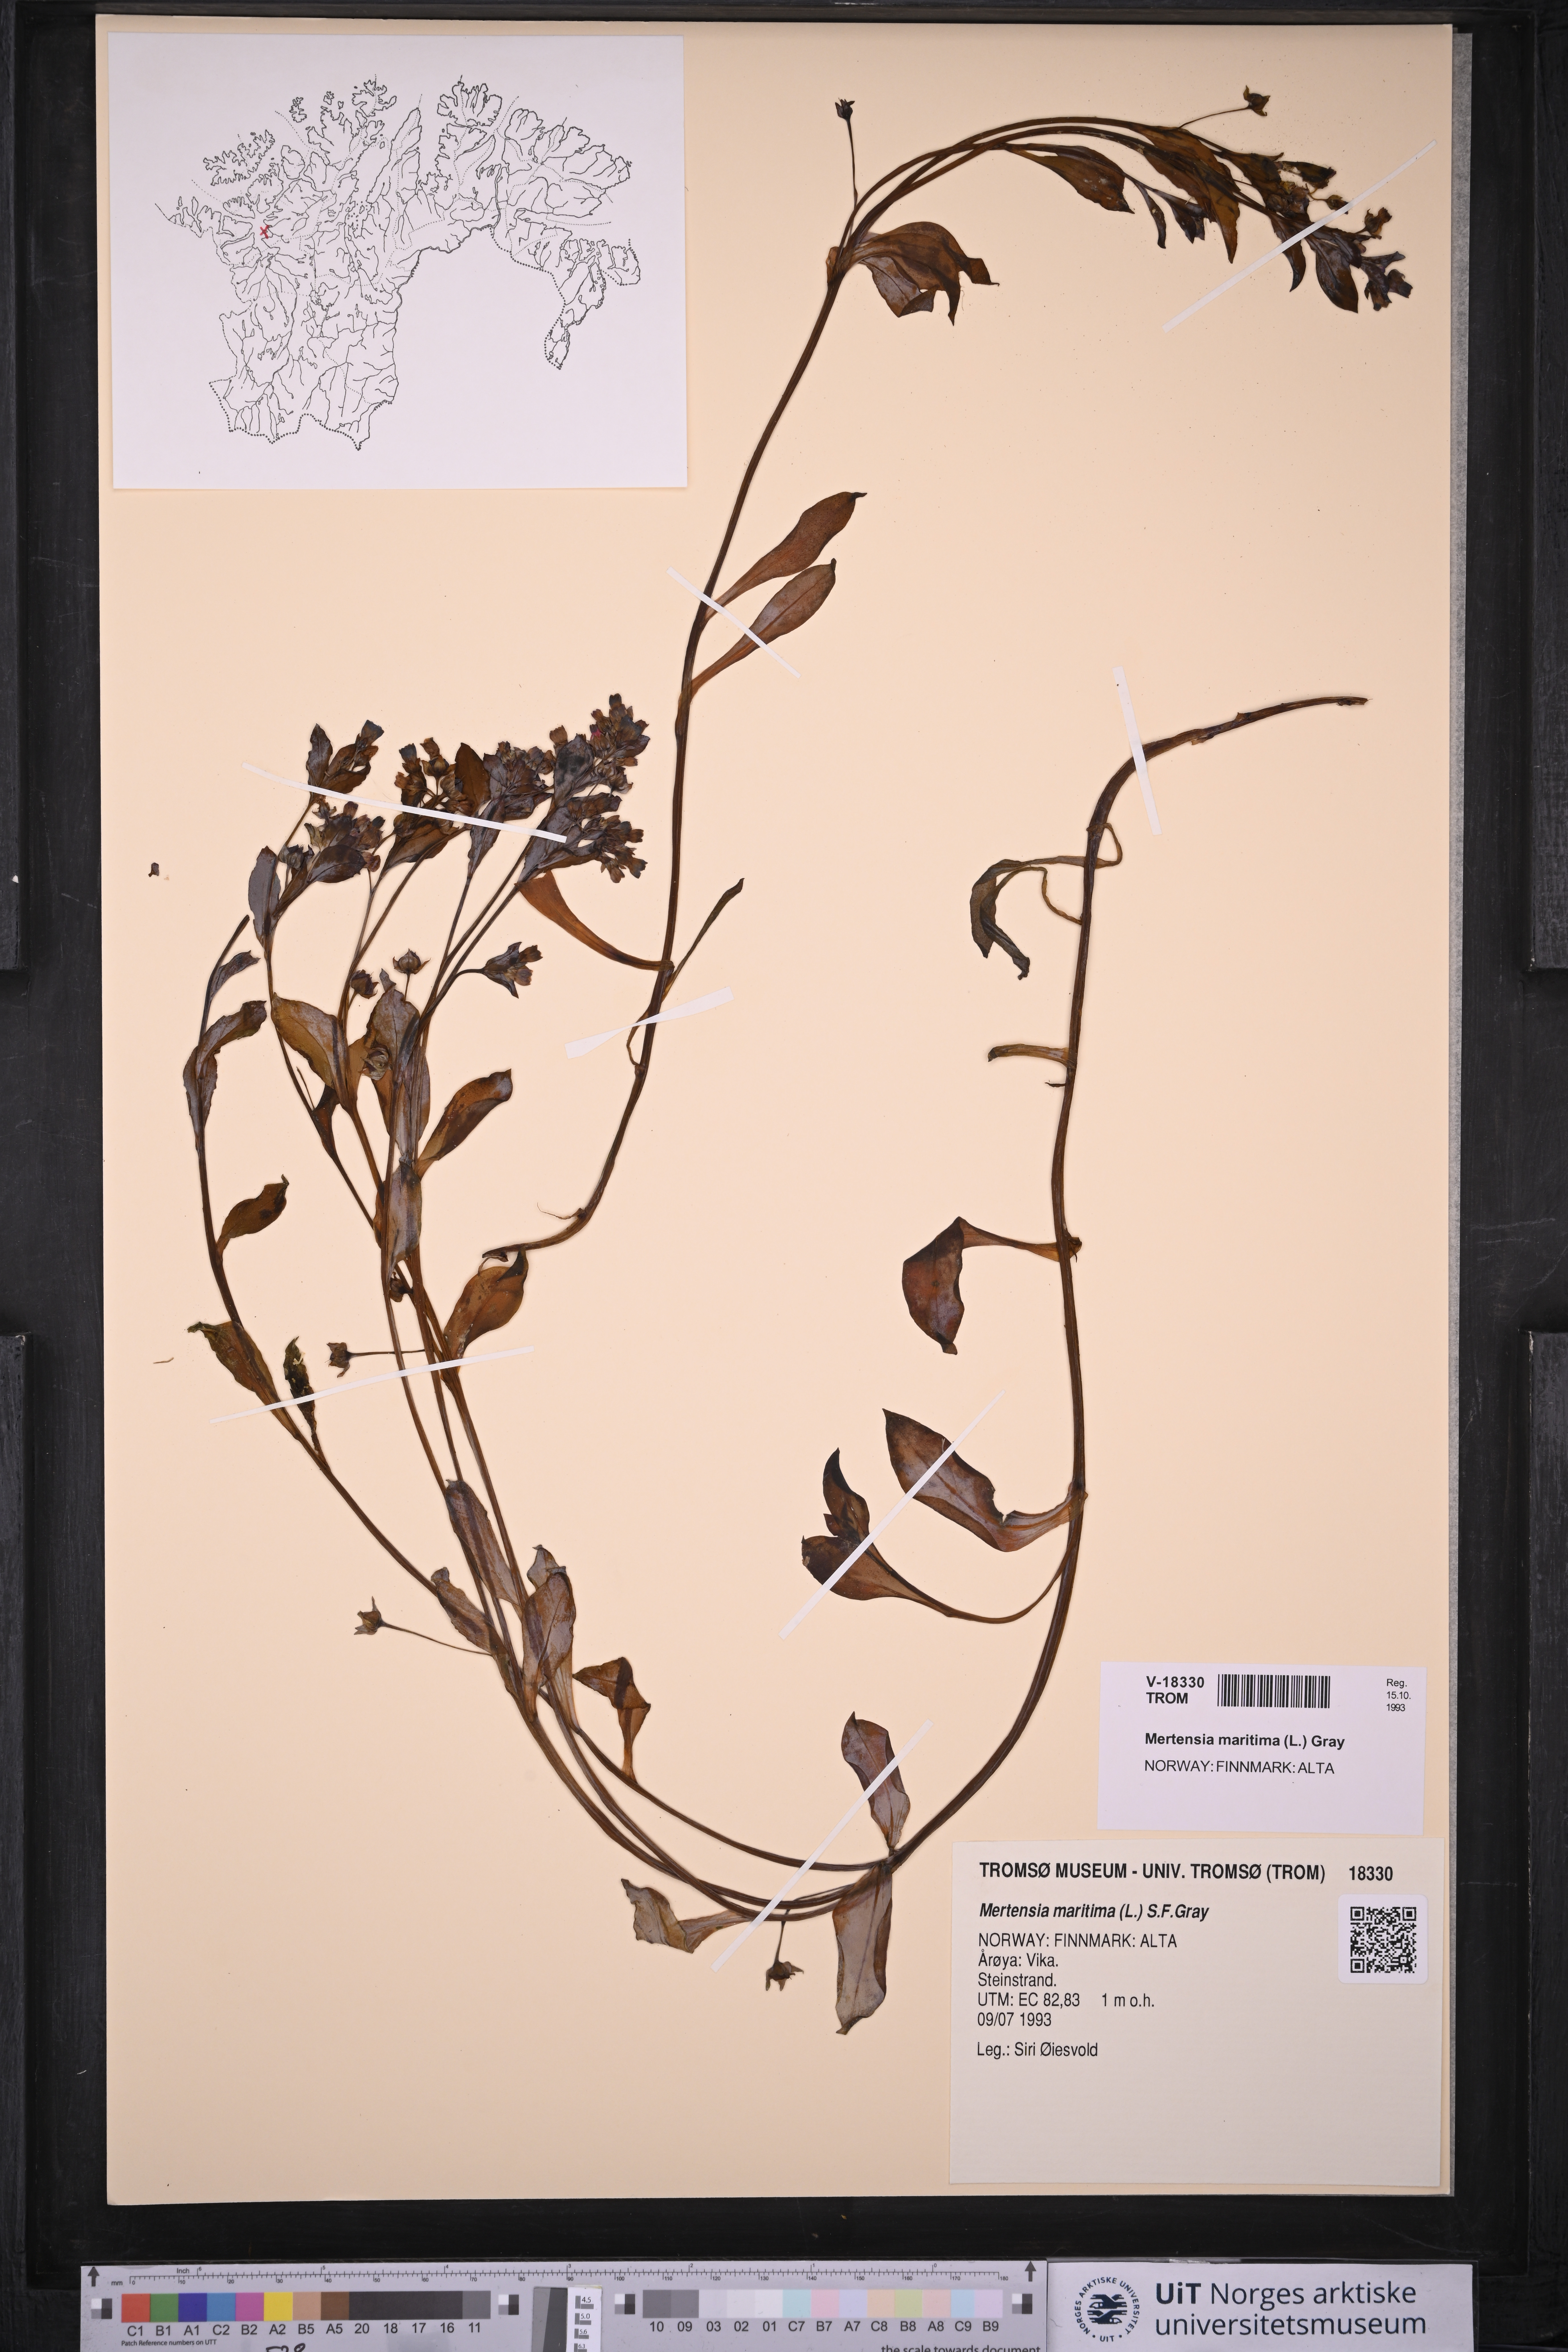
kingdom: Plantae
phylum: Tracheophyta
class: Magnoliopsida
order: Boraginales
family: Boraginaceae
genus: Mertensia
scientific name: Mertensia maritima
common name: Oysterplant
